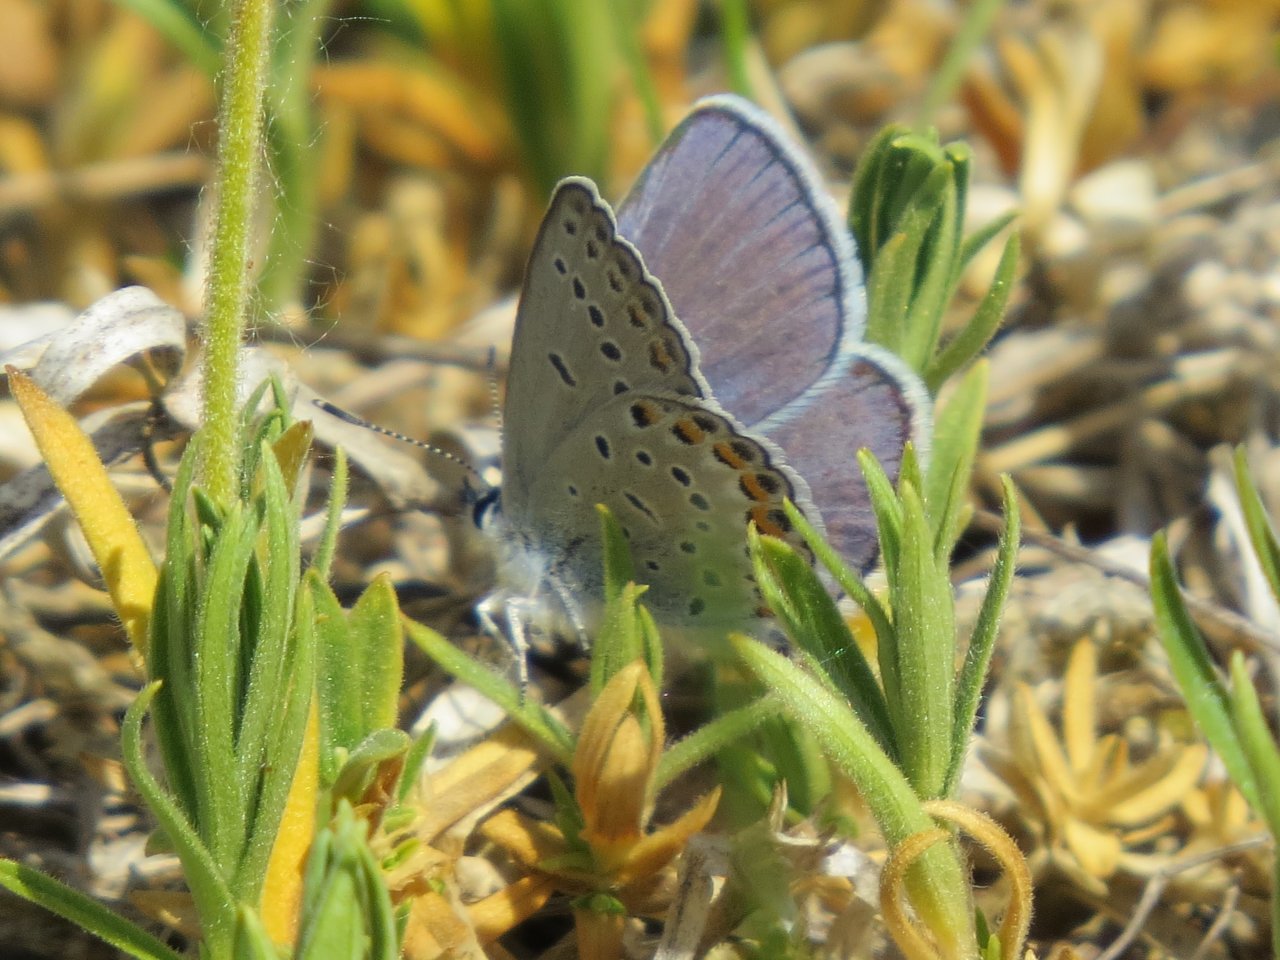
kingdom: Animalia
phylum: Arthropoda
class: Insecta
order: Lepidoptera
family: Lycaenidae
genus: Plebejus
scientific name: Plebejus samuelis
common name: Karner Blue
